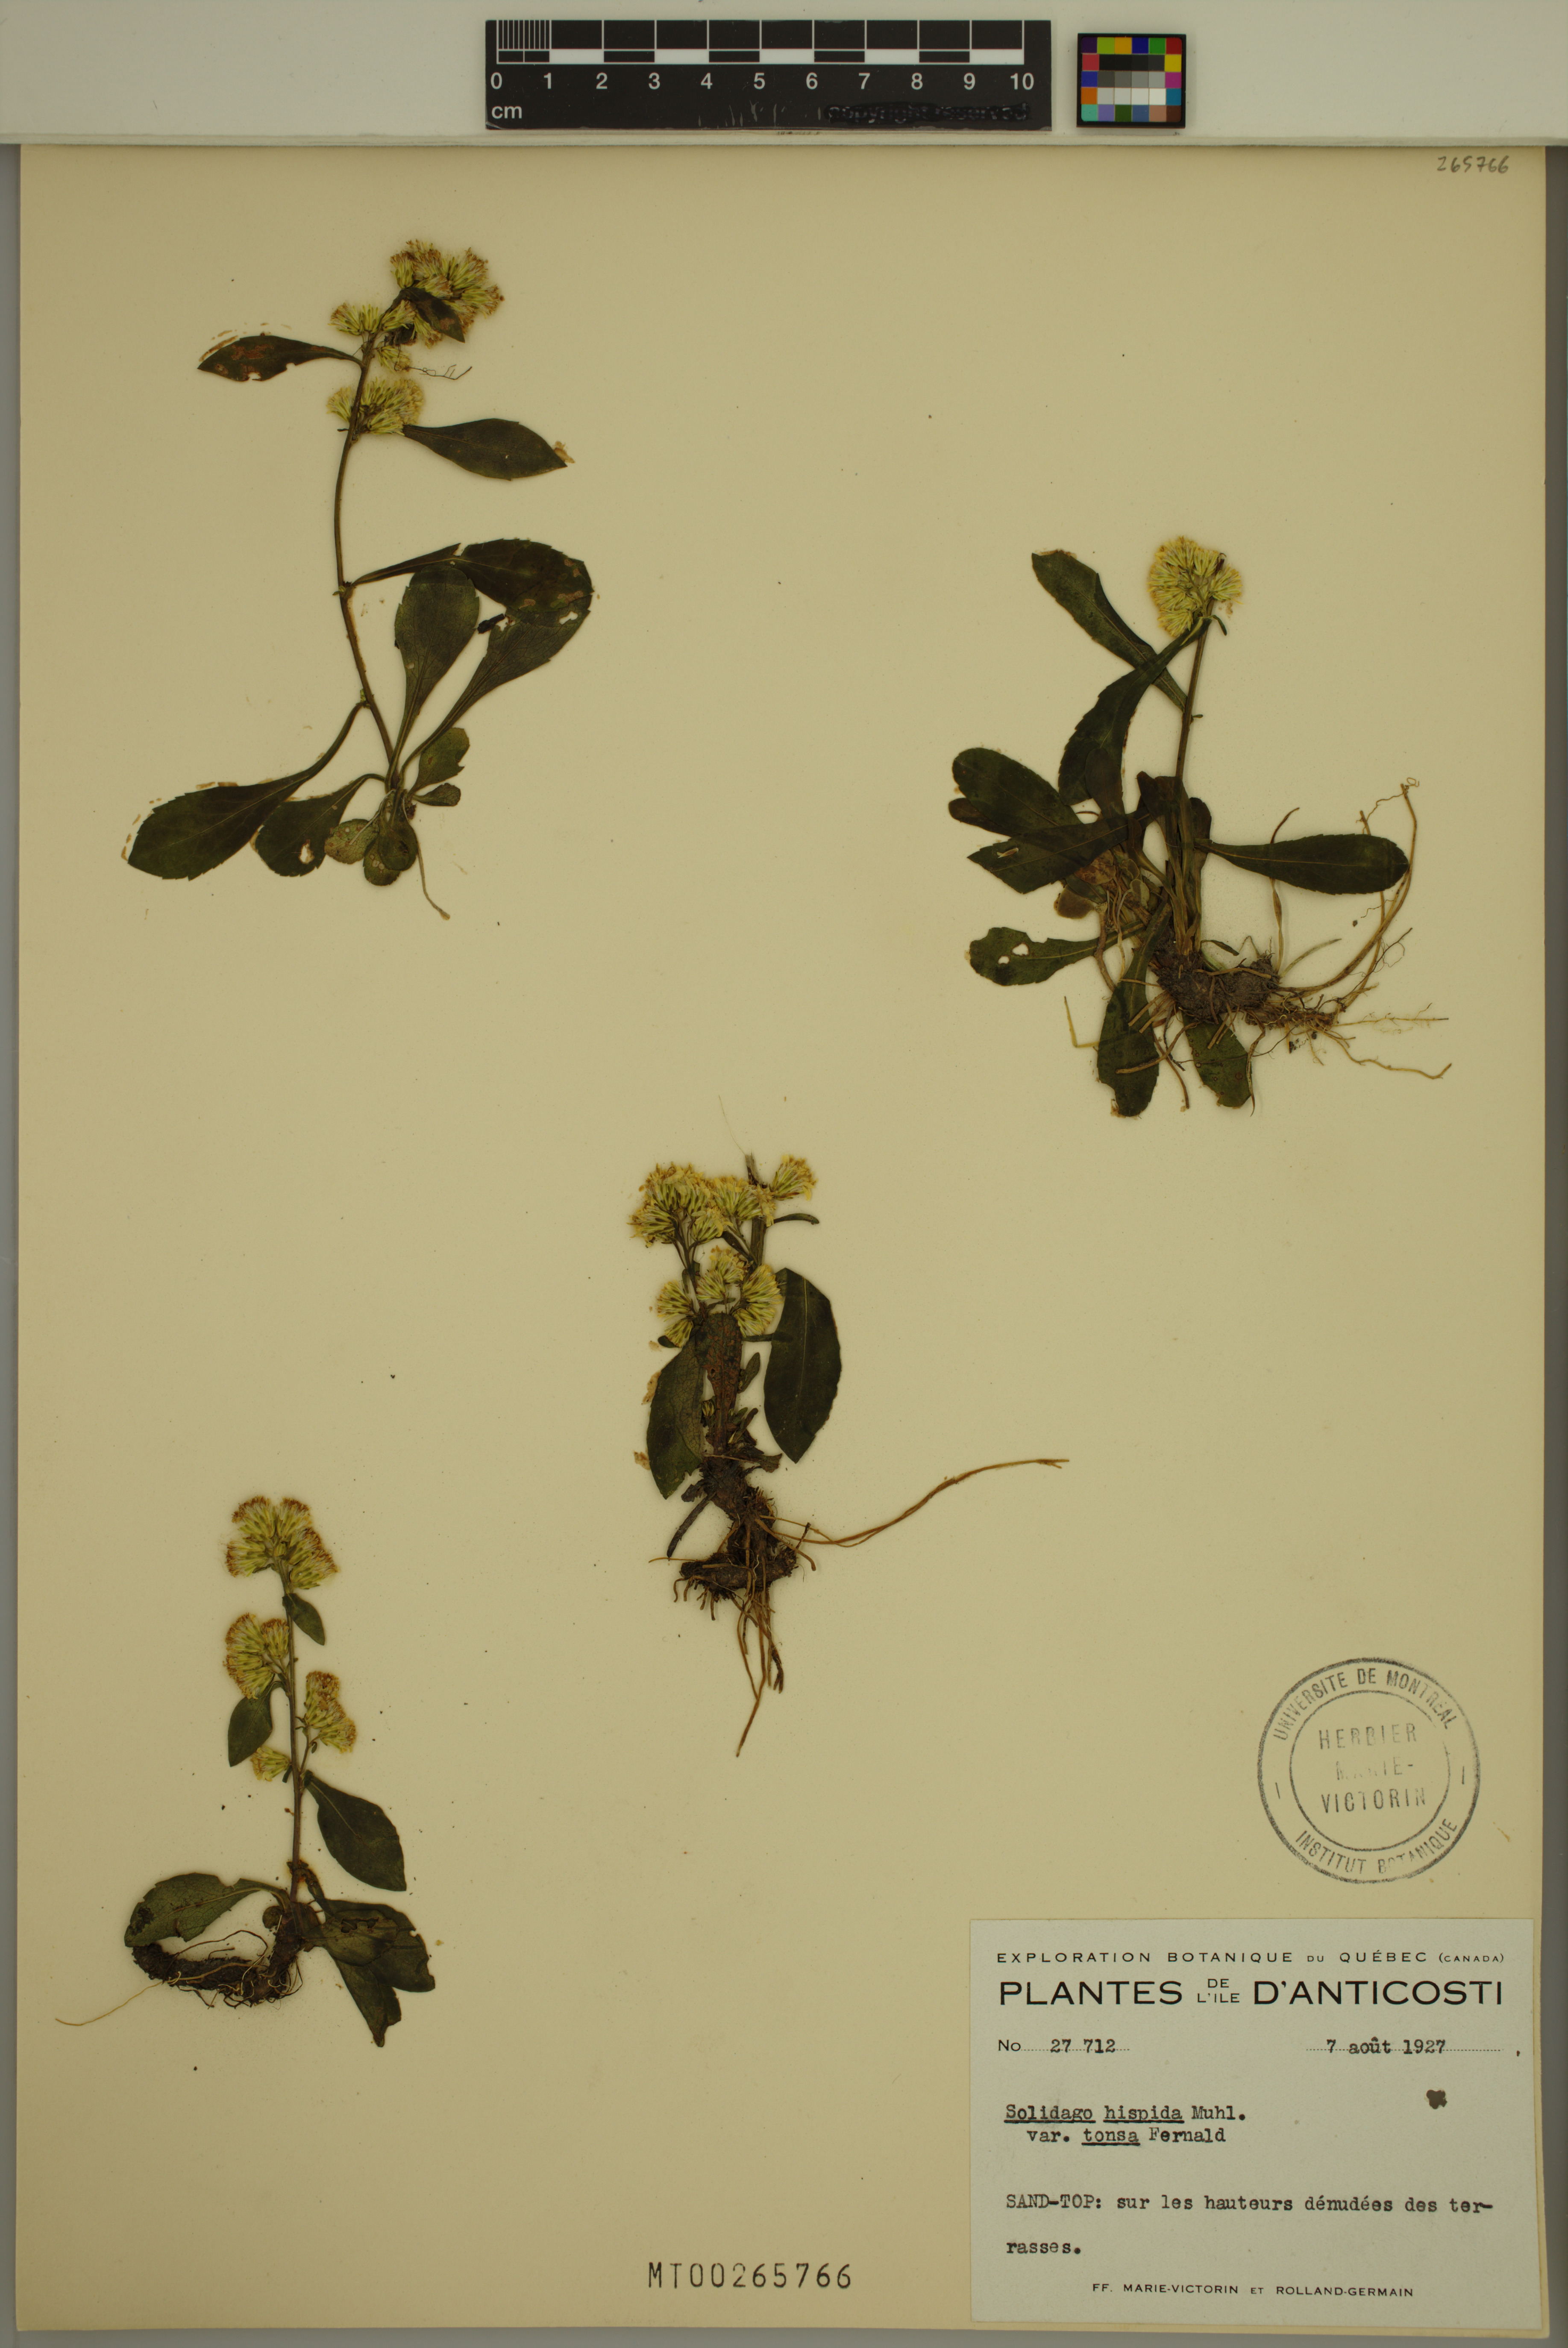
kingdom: Plantae
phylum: Tracheophyta
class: Magnoliopsida
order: Asterales
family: Asteraceae
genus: Solidago
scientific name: Solidago hispida
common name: Hairy goldenrod
